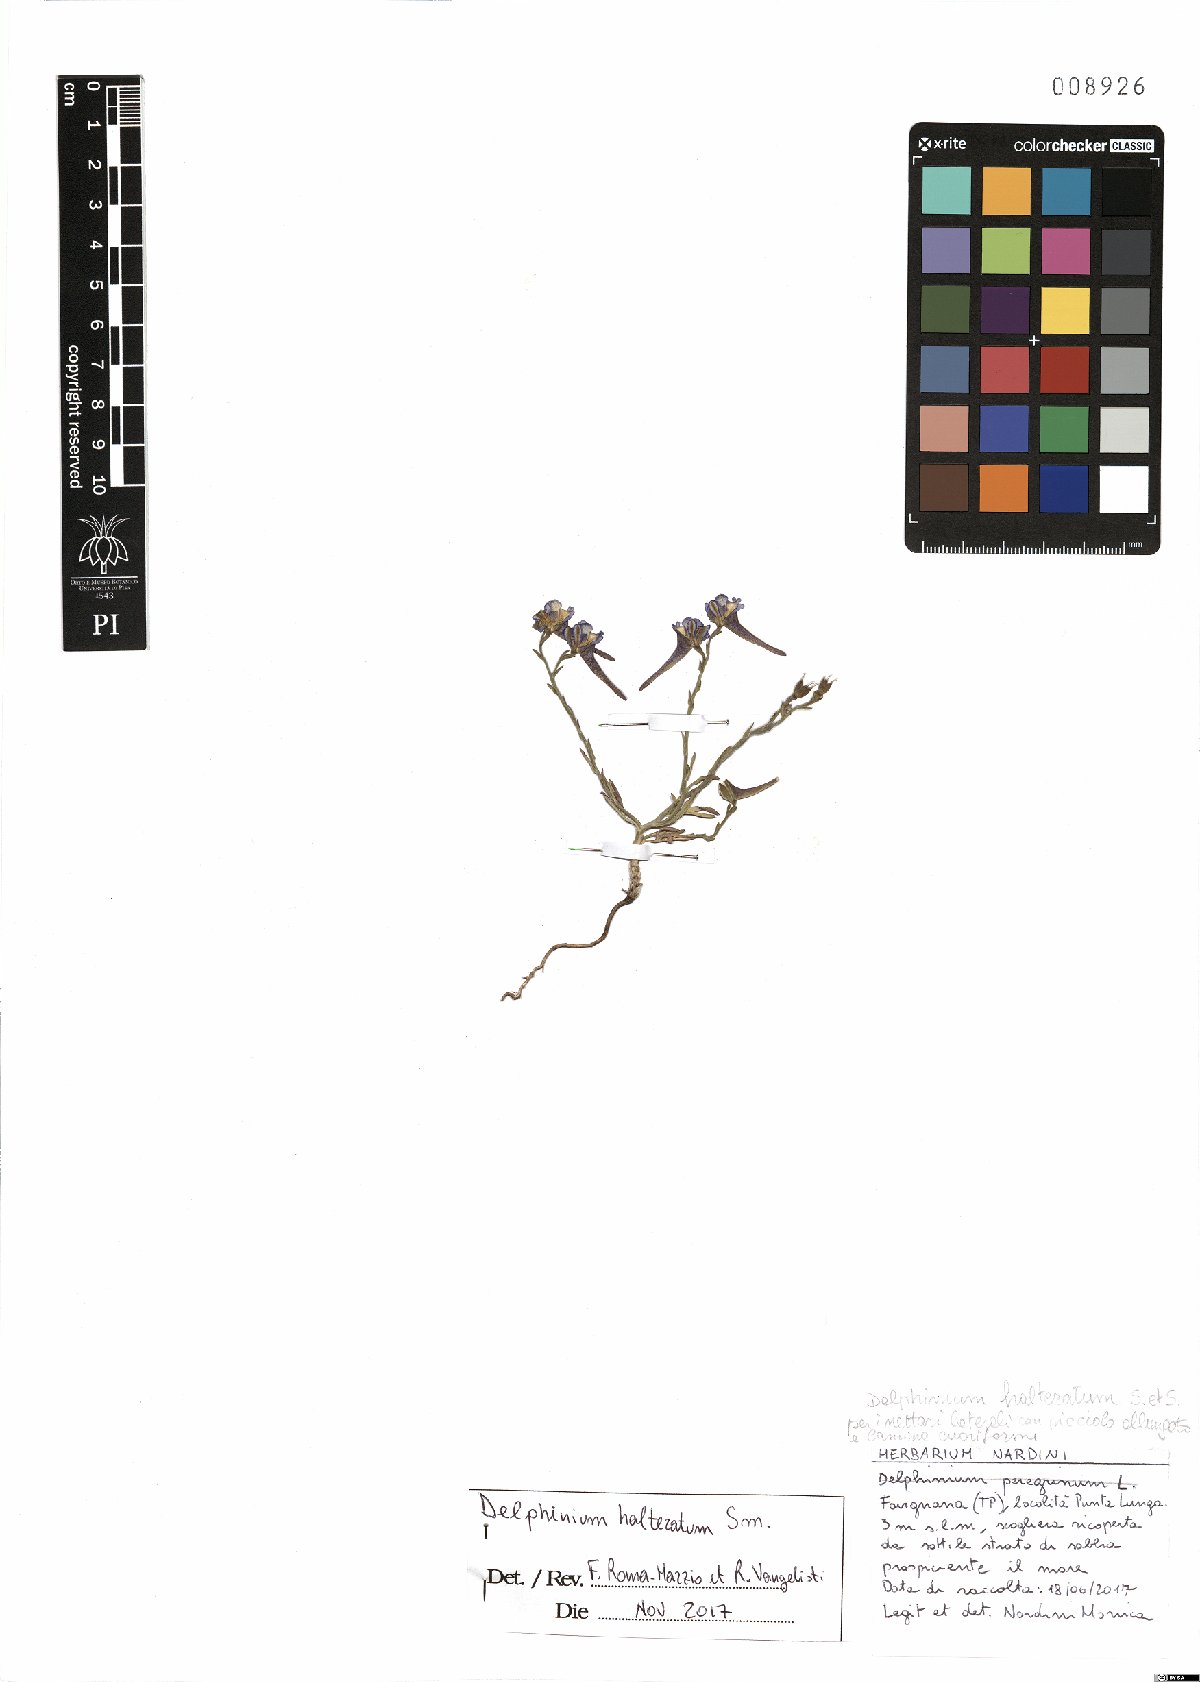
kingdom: Plantae
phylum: Tracheophyta
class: Magnoliopsida
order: Ranunculales
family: Ranunculaceae
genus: Delphinium
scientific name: Delphinium halteratum
